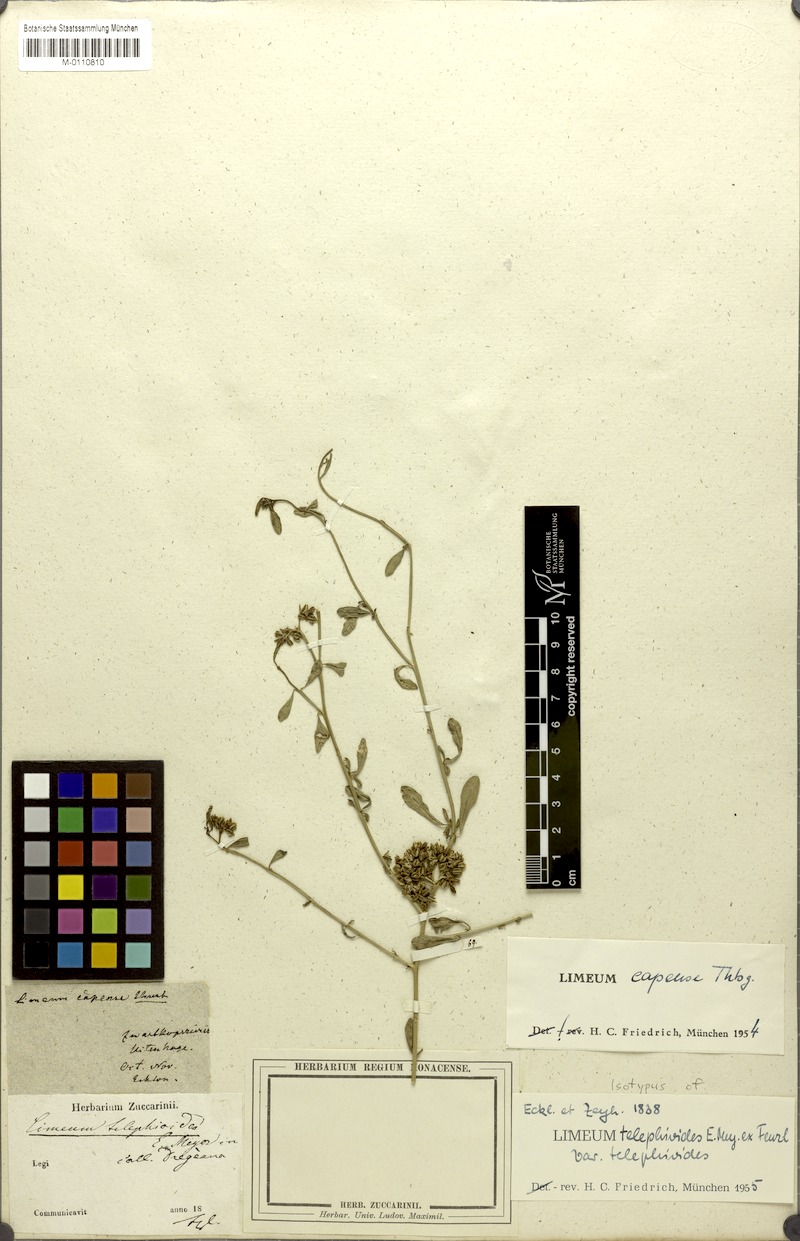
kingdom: Plantae
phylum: Tracheophyta
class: Magnoliopsida
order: Caryophyllales
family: Limeaceae
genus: Limeum
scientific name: Limeum telephioides
